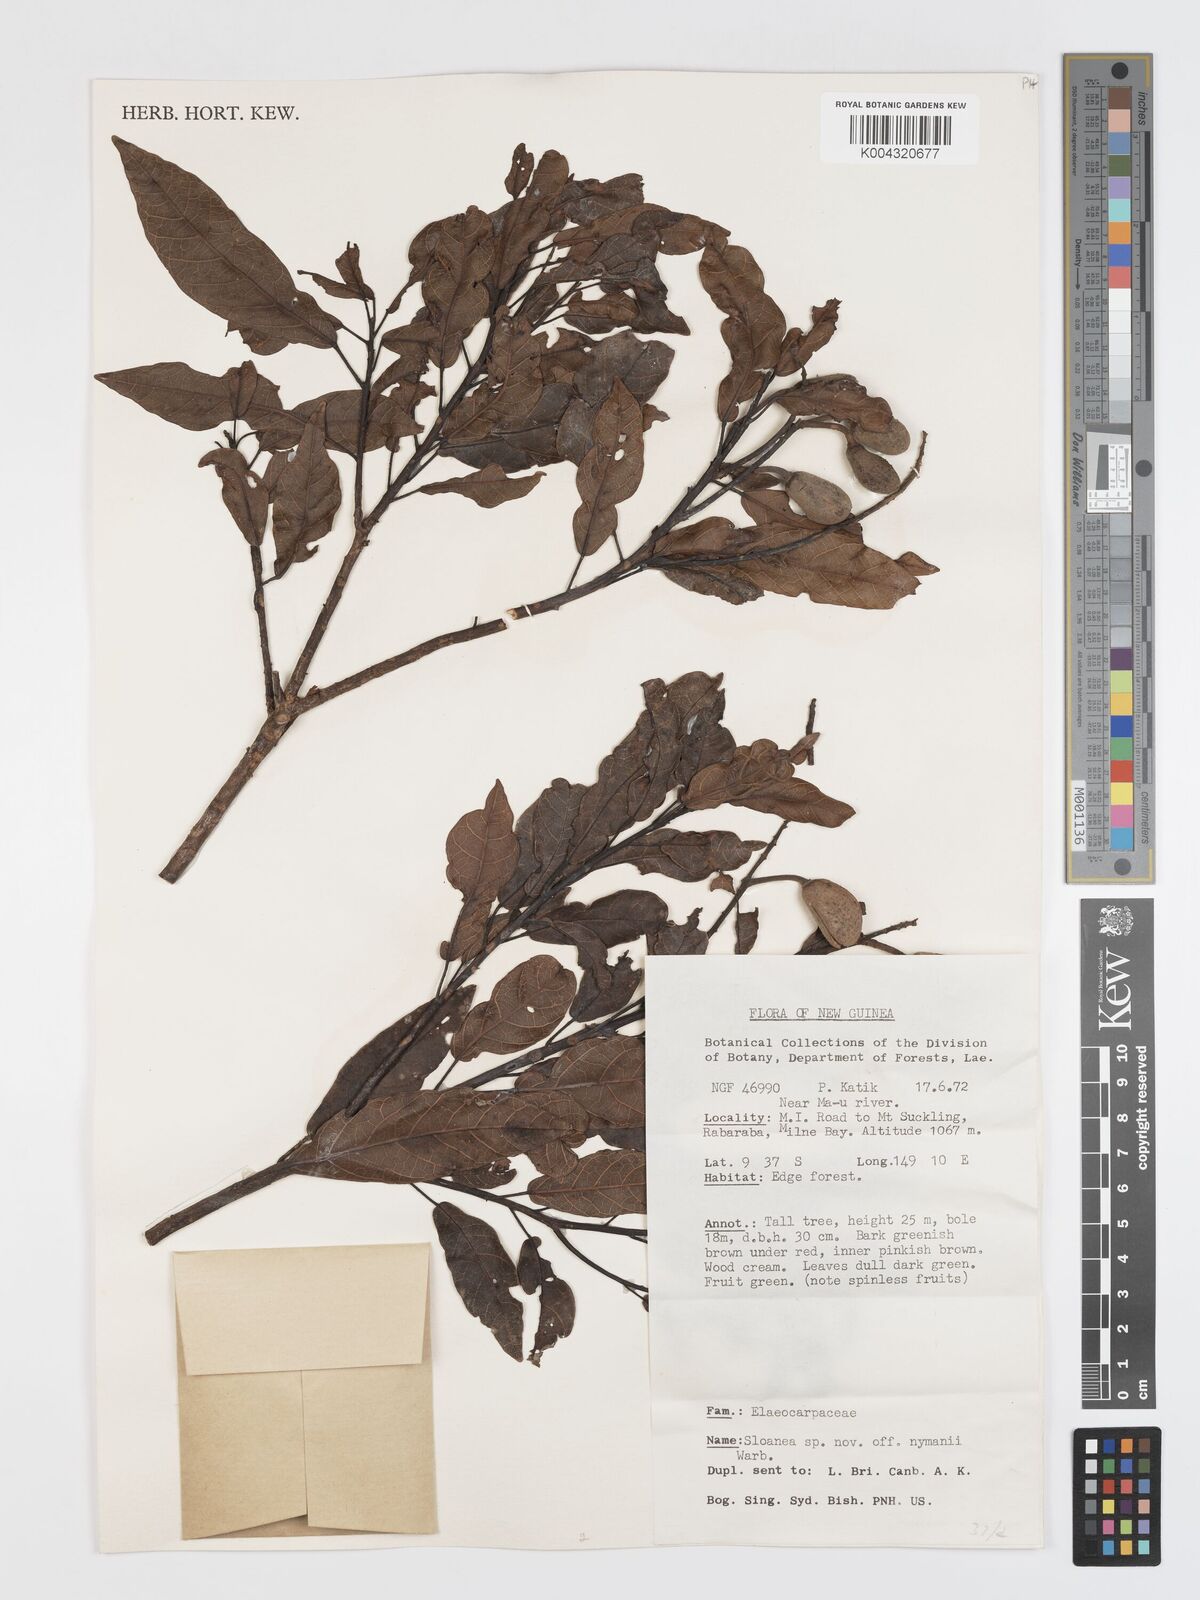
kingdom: Plantae
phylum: Tracheophyta
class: Magnoliopsida
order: Oxalidales
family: Elaeocarpaceae
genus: Sloanea
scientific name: Sloanea nymanii
